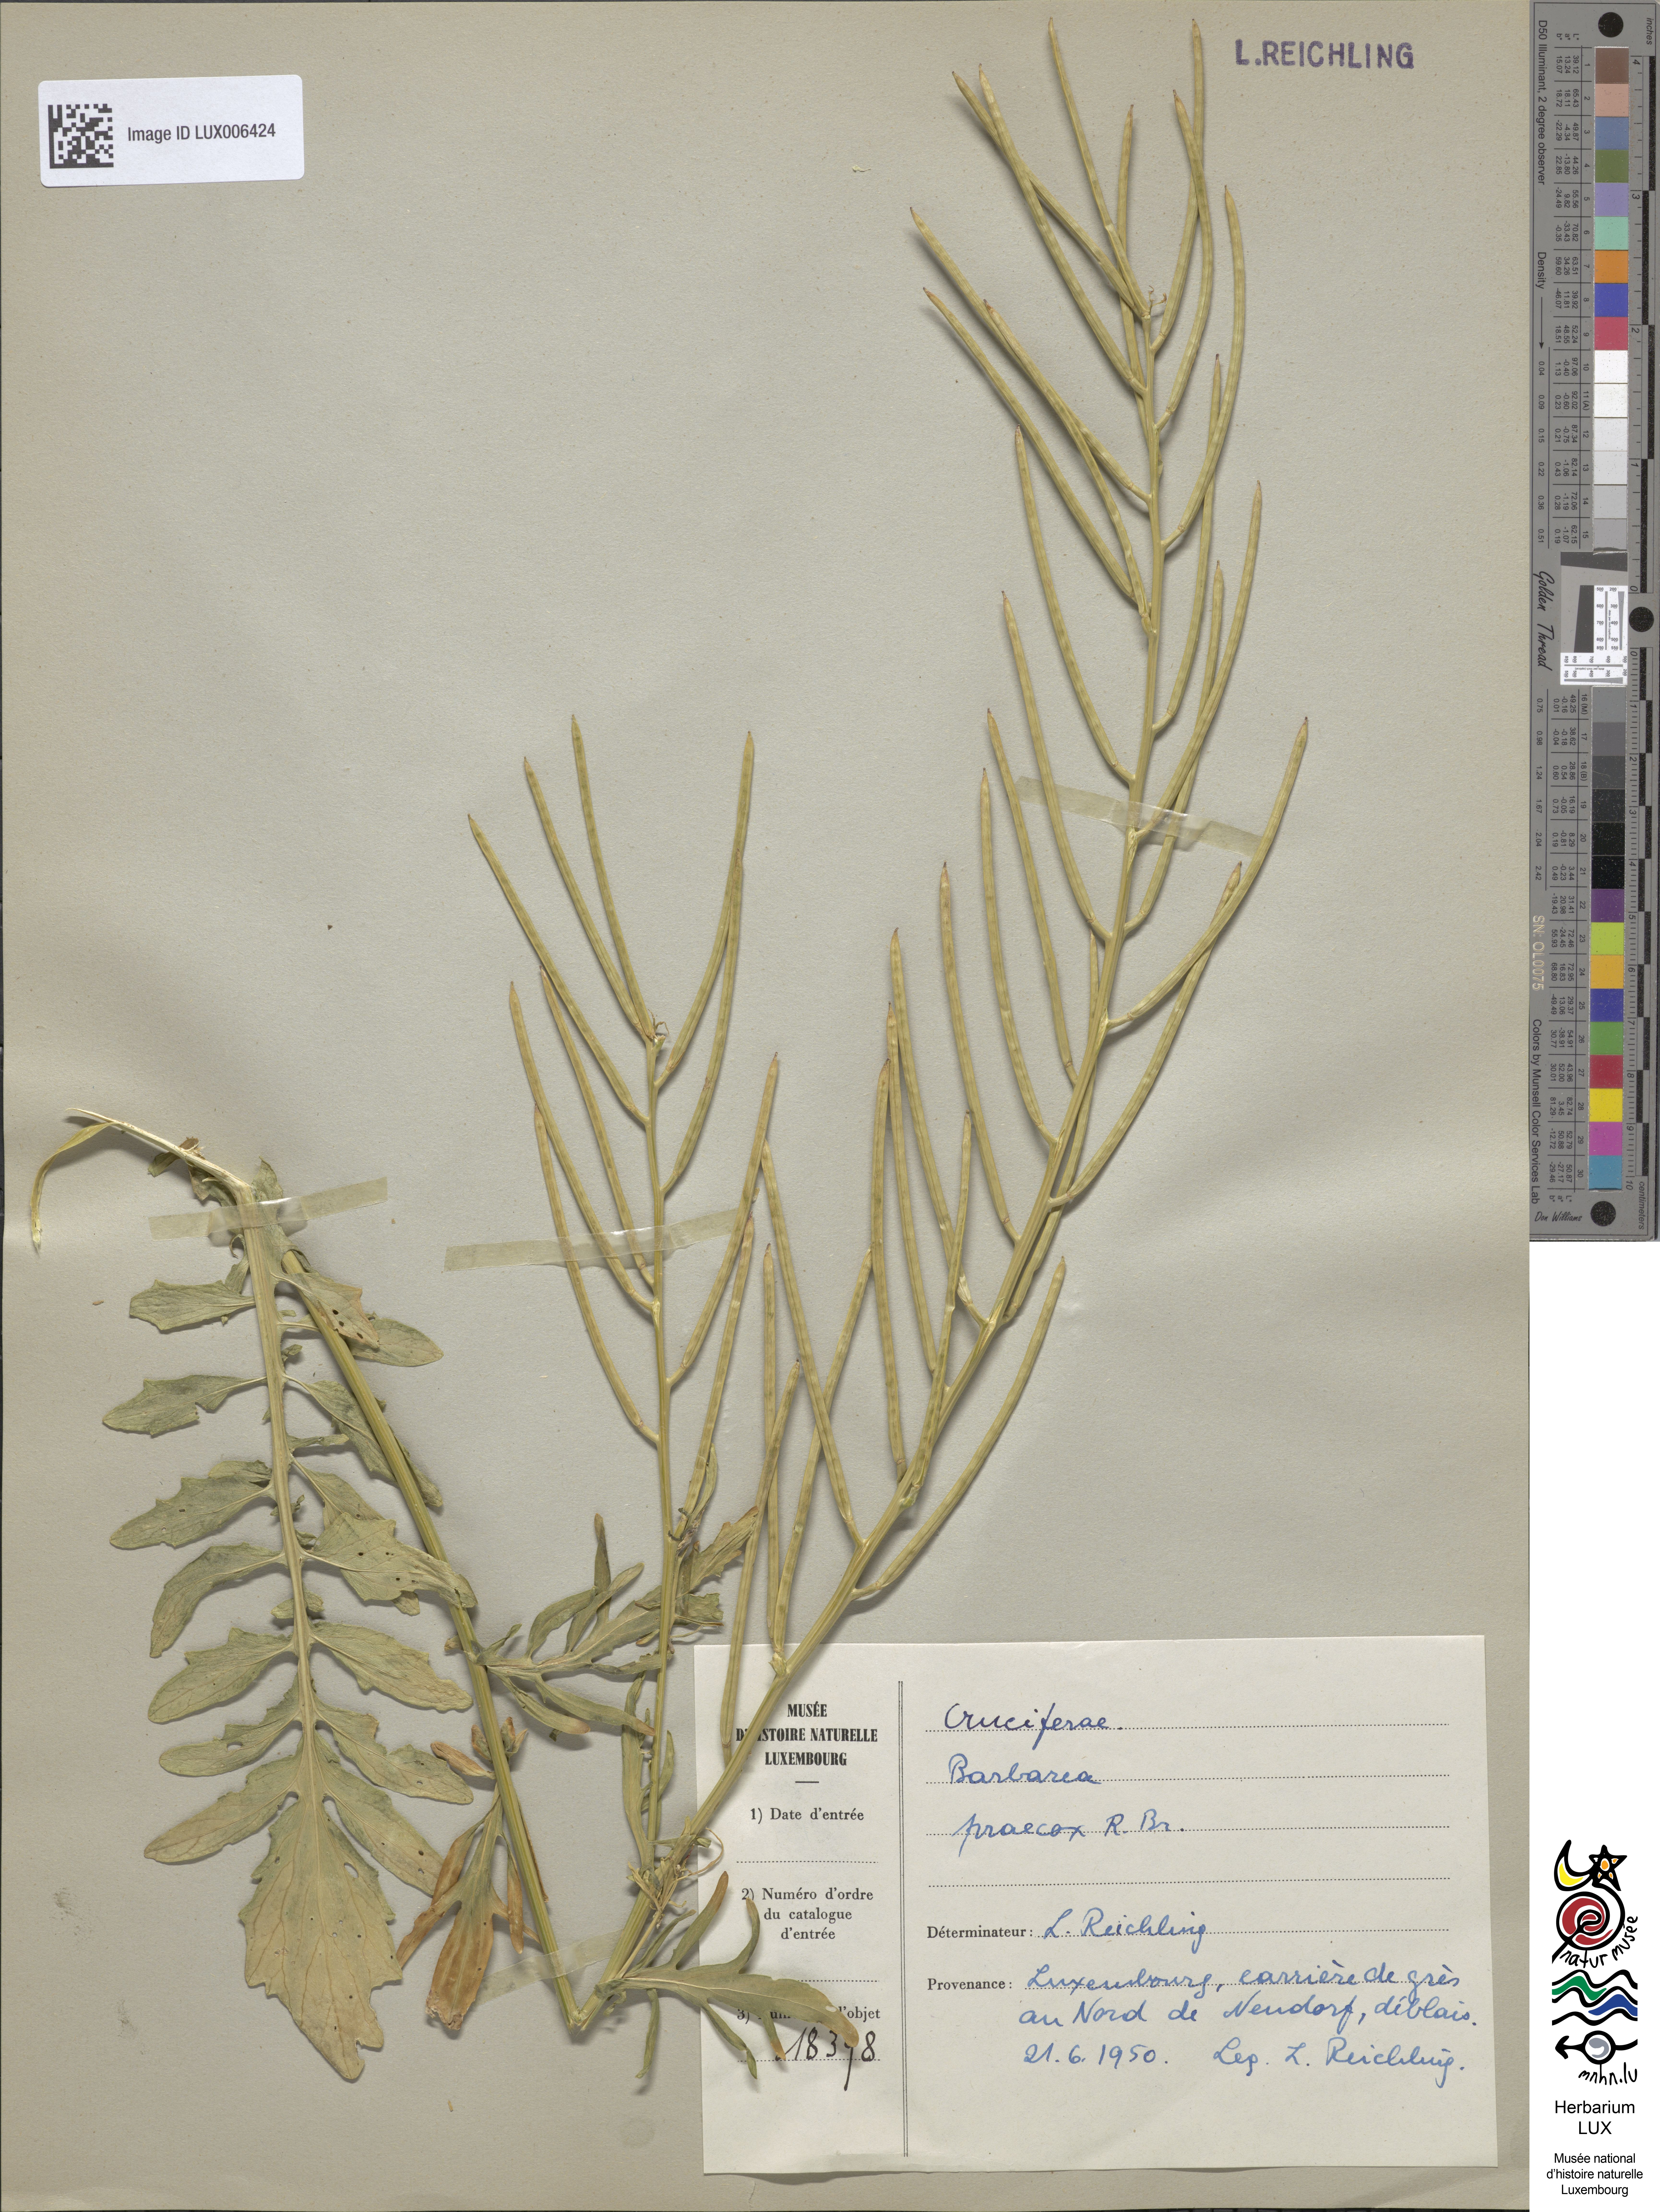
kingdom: Plantae
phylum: Tracheophyta
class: Magnoliopsida
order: Brassicales
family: Brassicaceae
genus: Barbarea
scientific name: Barbarea verna
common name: American cress
